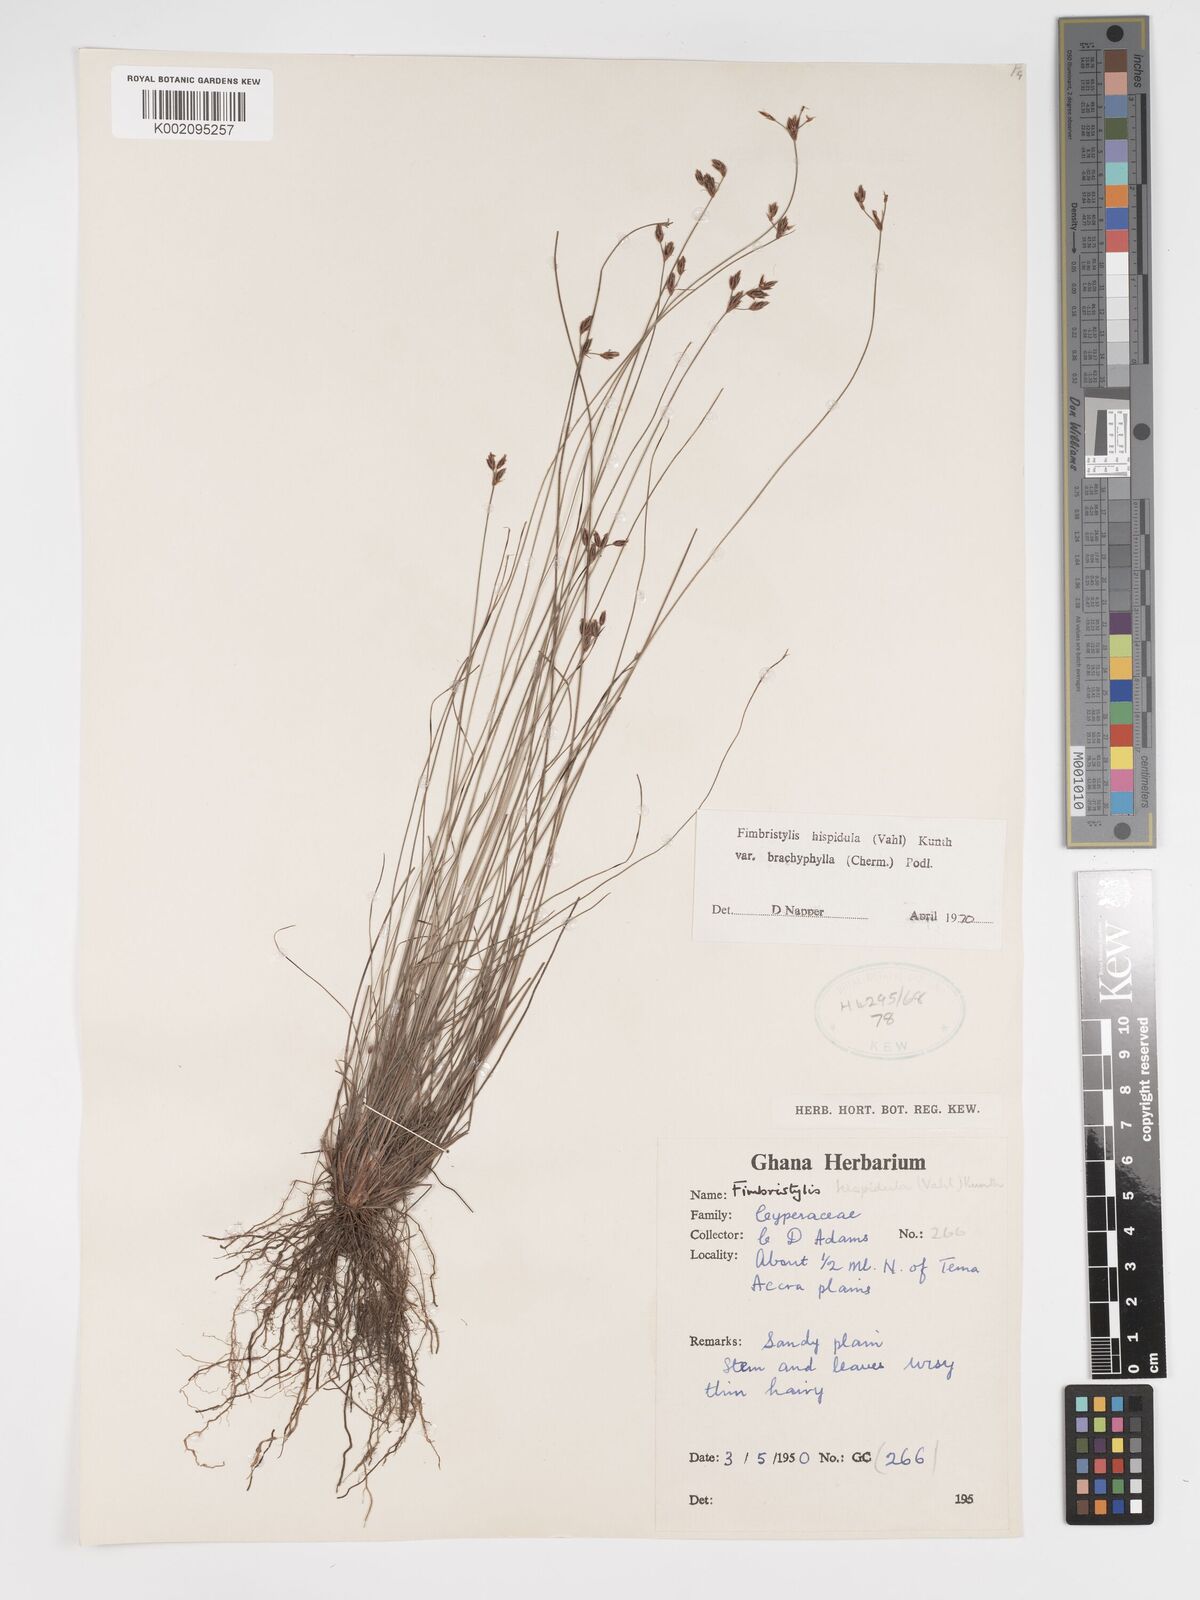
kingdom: Plantae
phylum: Tracheophyta
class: Liliopsida
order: Poales
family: Cyperaceae
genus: Bulbostylis
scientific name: Bulbostylis hispidula
